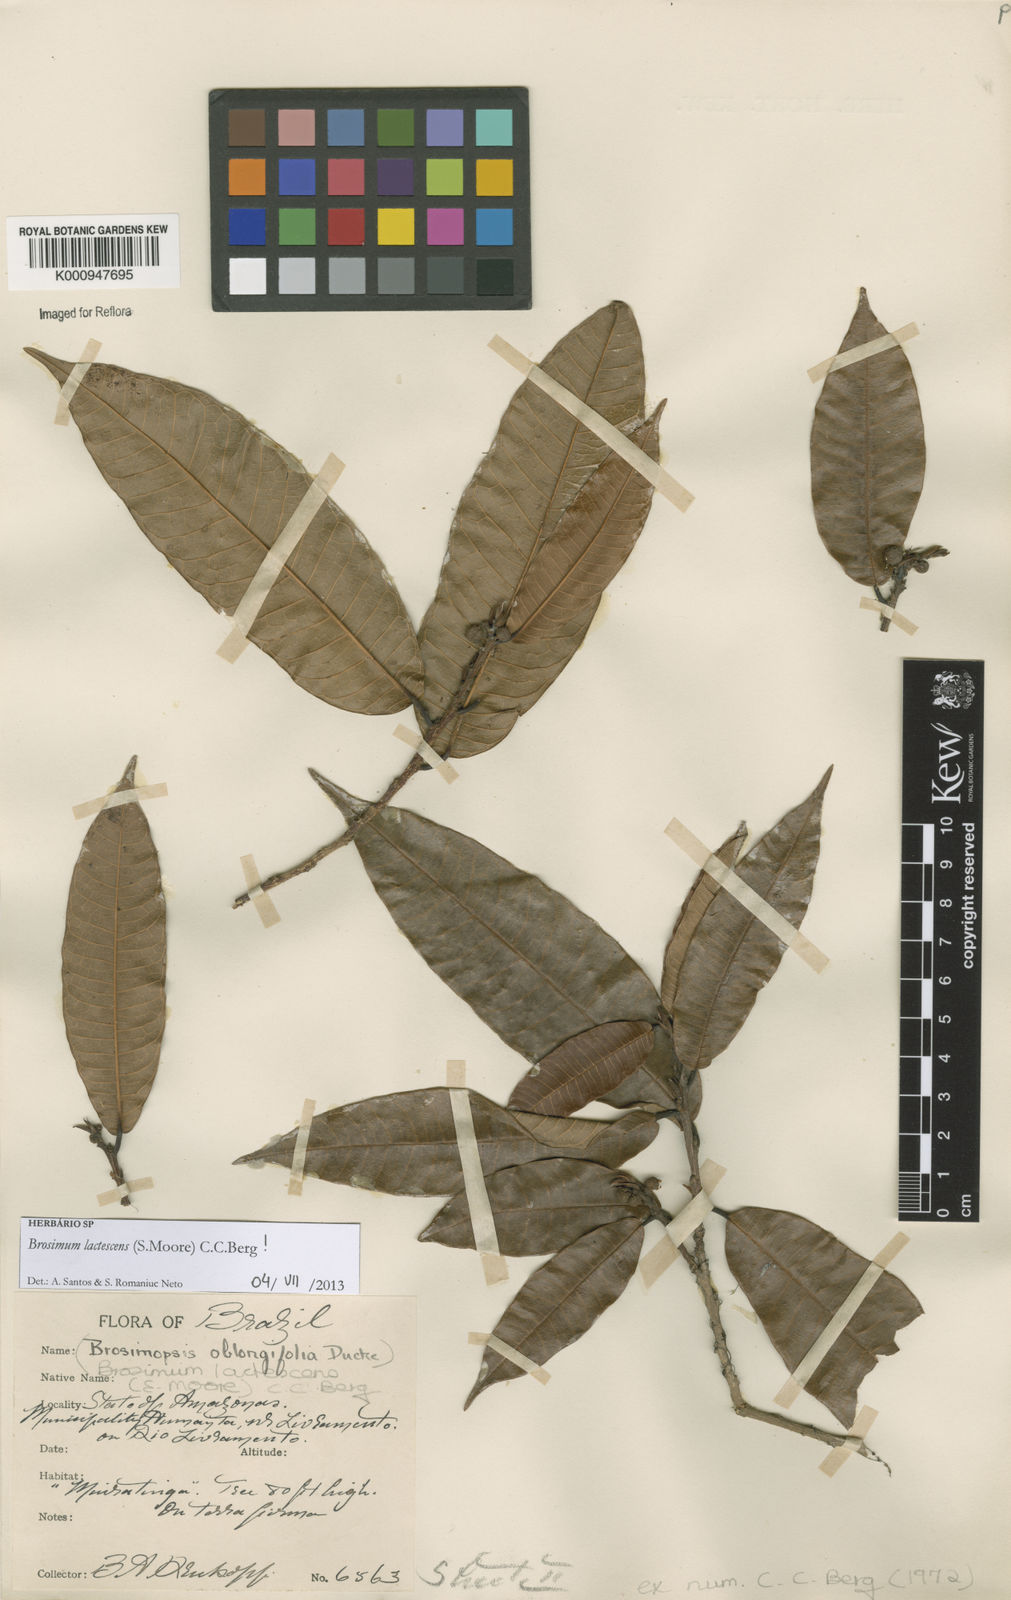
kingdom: Plantae
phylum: Tracheophyta
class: Magnoliopsida
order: Rosales
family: Moraceae
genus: Brosimum
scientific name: Brosimum lactescens
